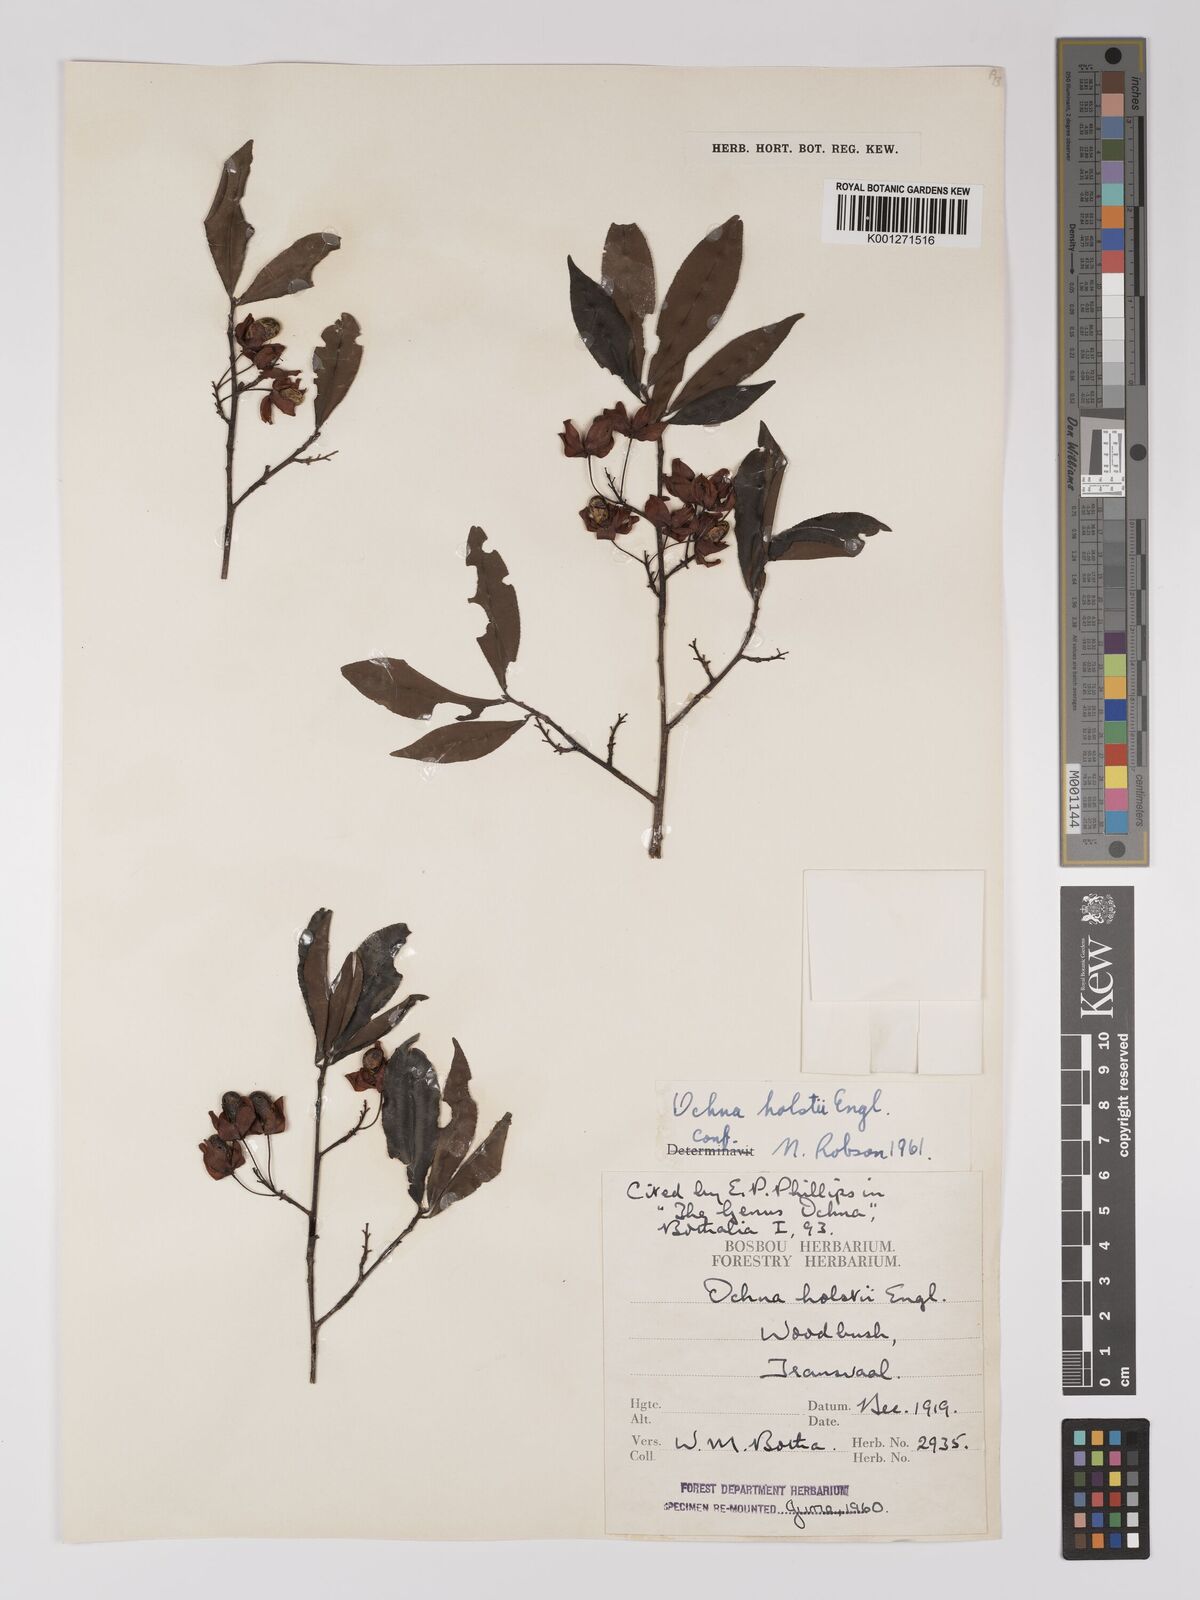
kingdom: Plantae
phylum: Tracheophyta
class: Magnoliopsida
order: Malpighiales
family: Ochnaceae
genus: Ochna
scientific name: Ochna holstii
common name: Red ironwood
